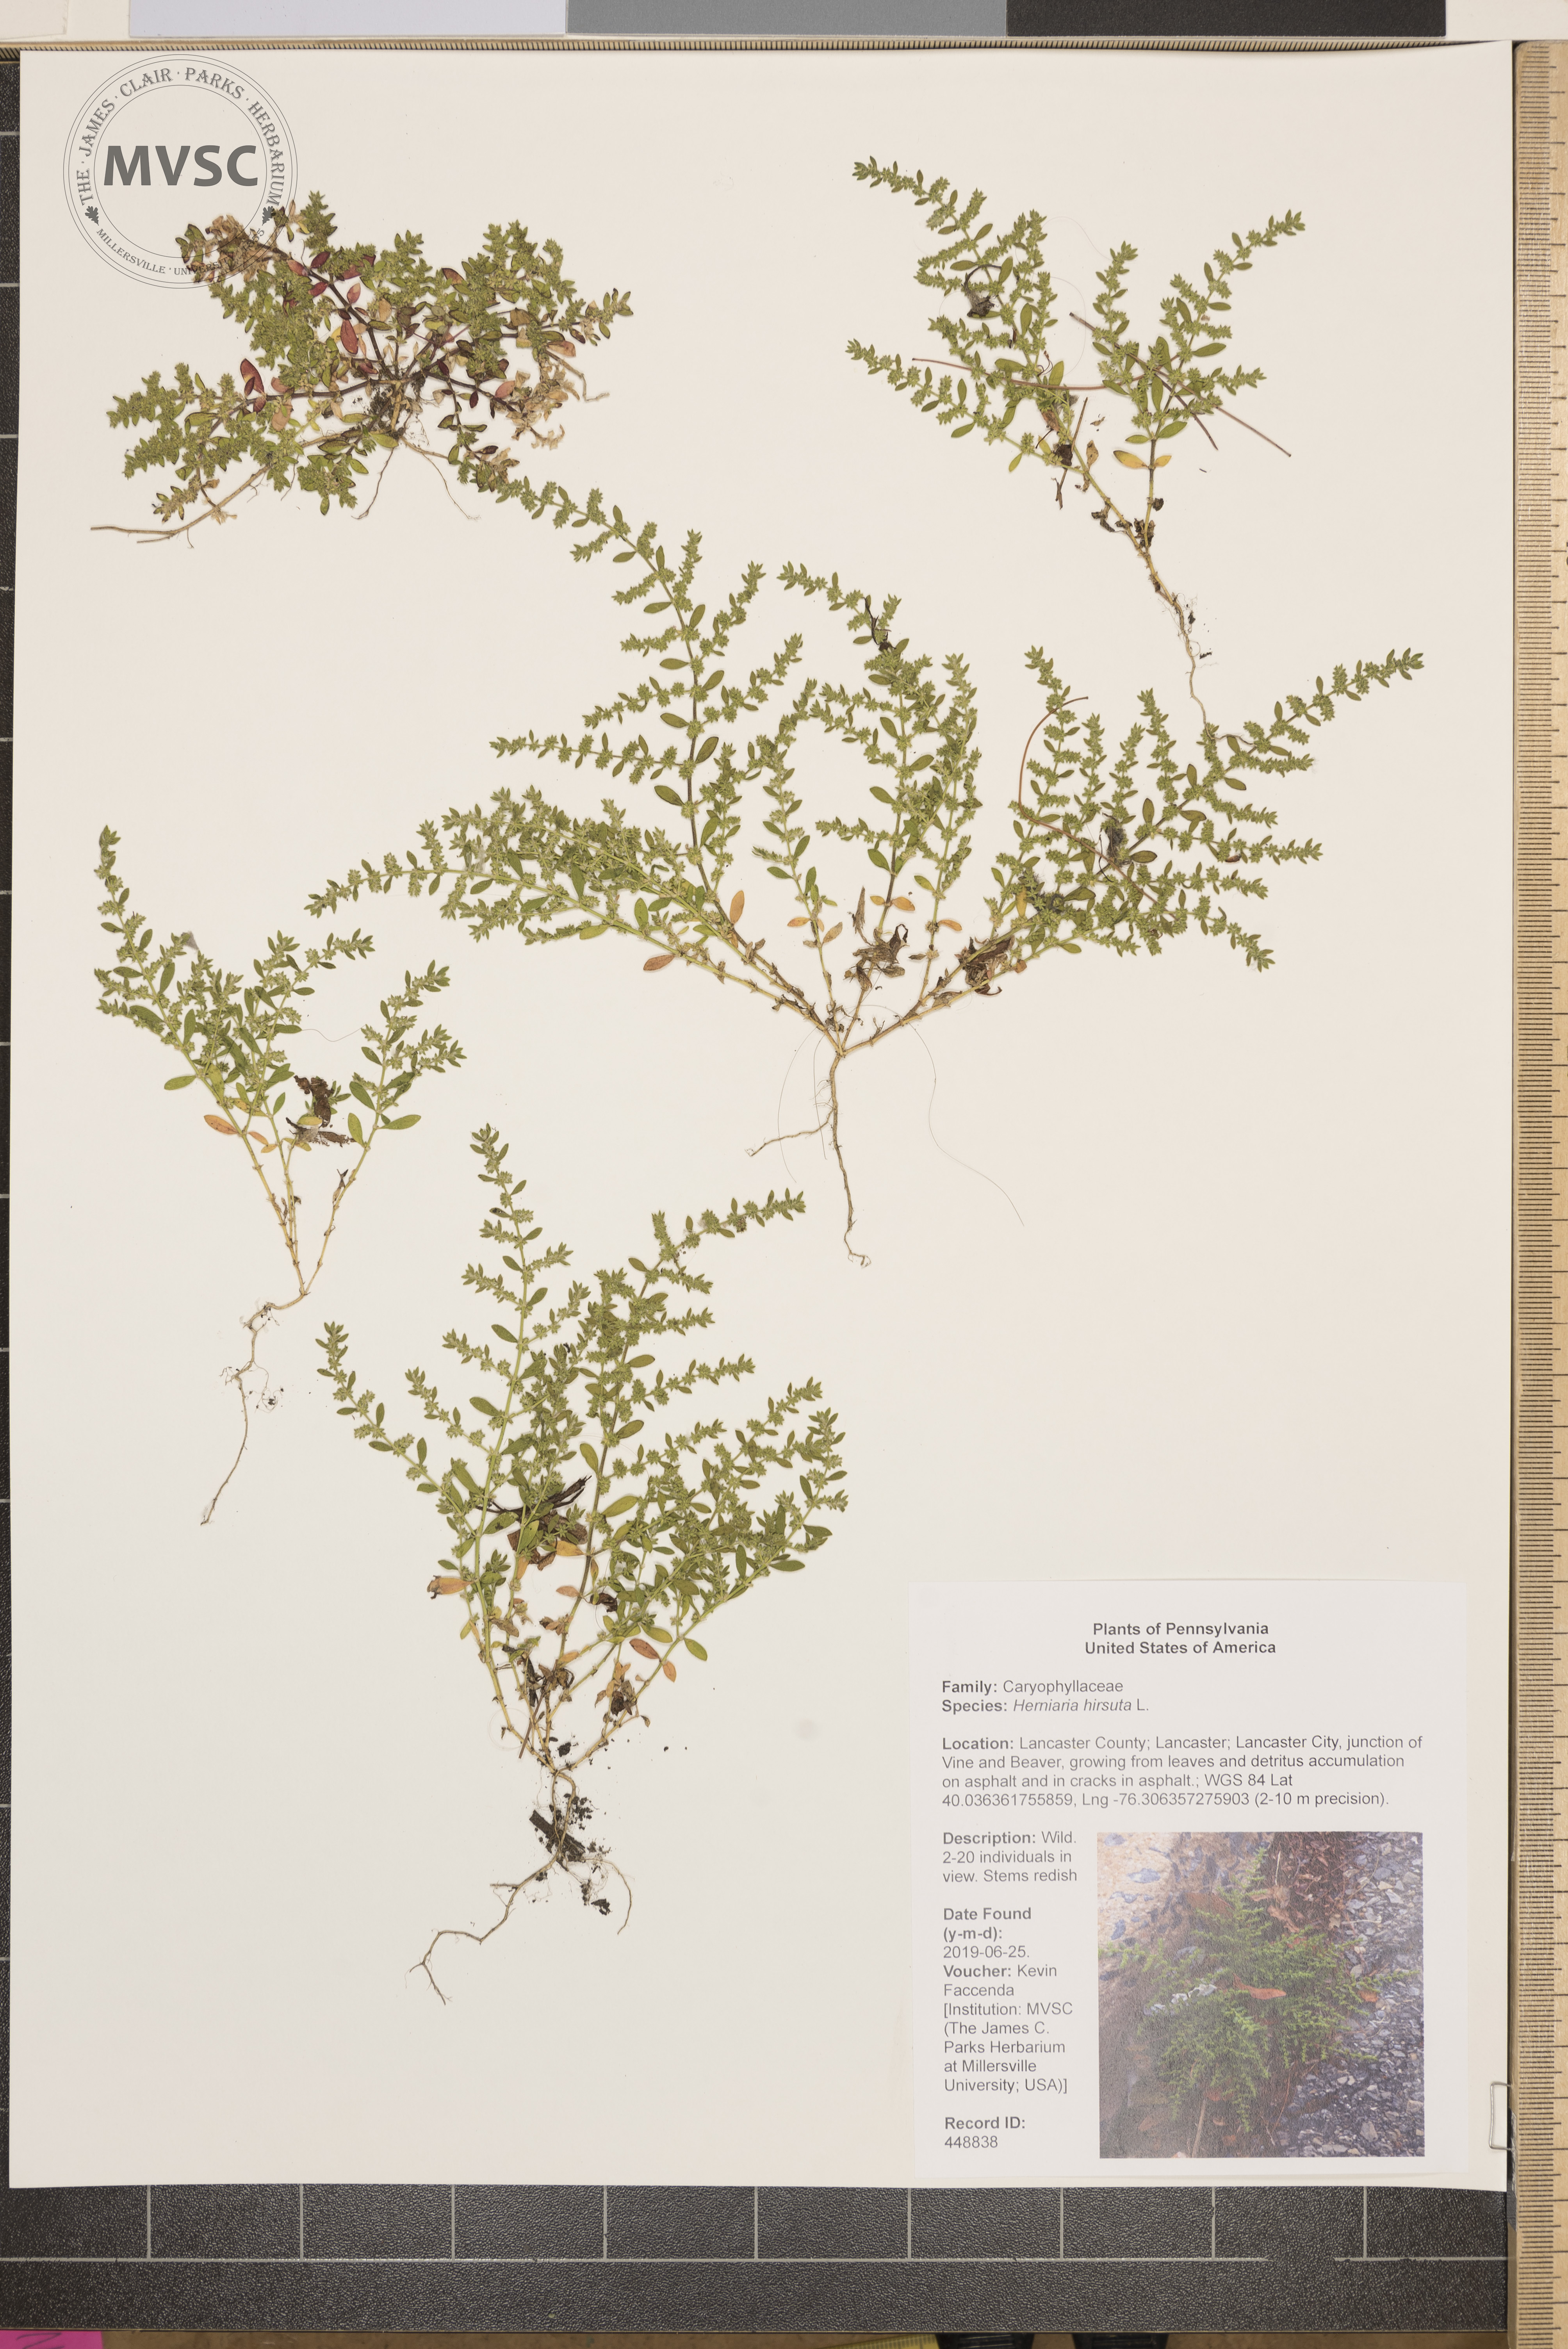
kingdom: Plantae
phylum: Tracheophyta
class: Magnoliopsida
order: Caryophyllales
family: Caryophyllaceae
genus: Herniaria
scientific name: Herniaria hirsuta
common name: Hairy rupturewort
